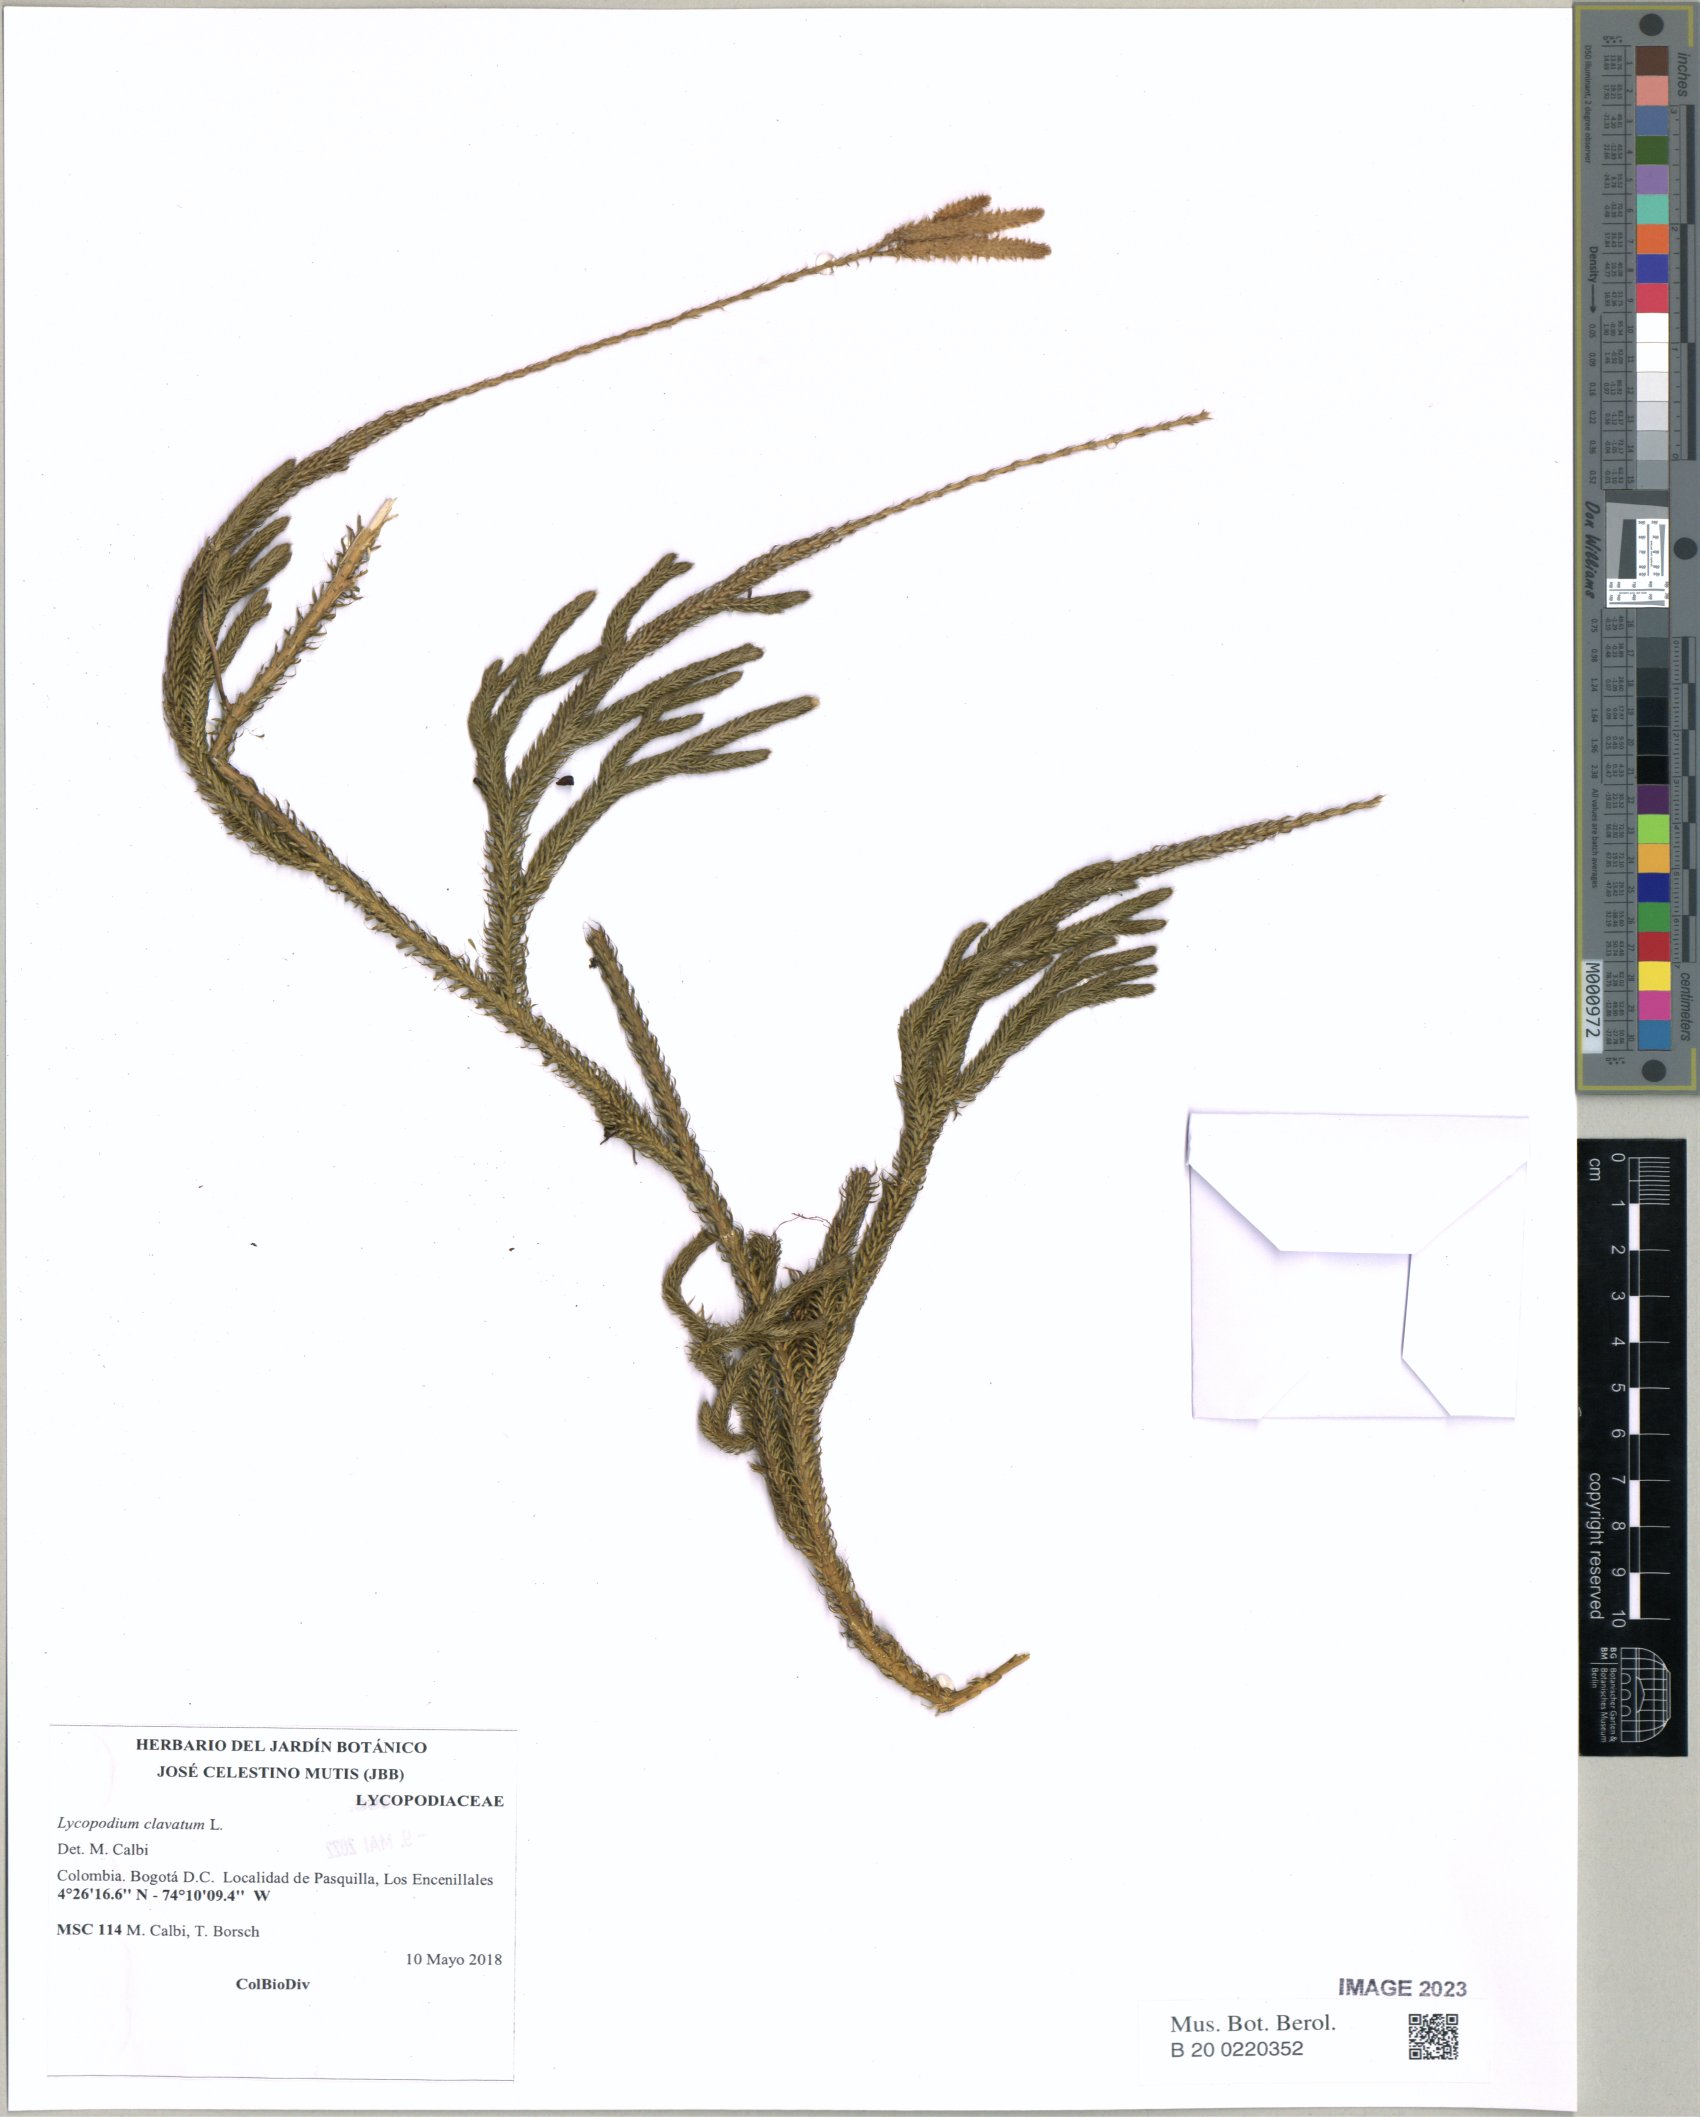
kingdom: Plantae
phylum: Tracheophyta
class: Lycopodiopsida
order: Lycopodiales
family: Lycopodiaceae
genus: Lycopodium
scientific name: Lycopodium clavatum
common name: Stag's-horn clubmoss
